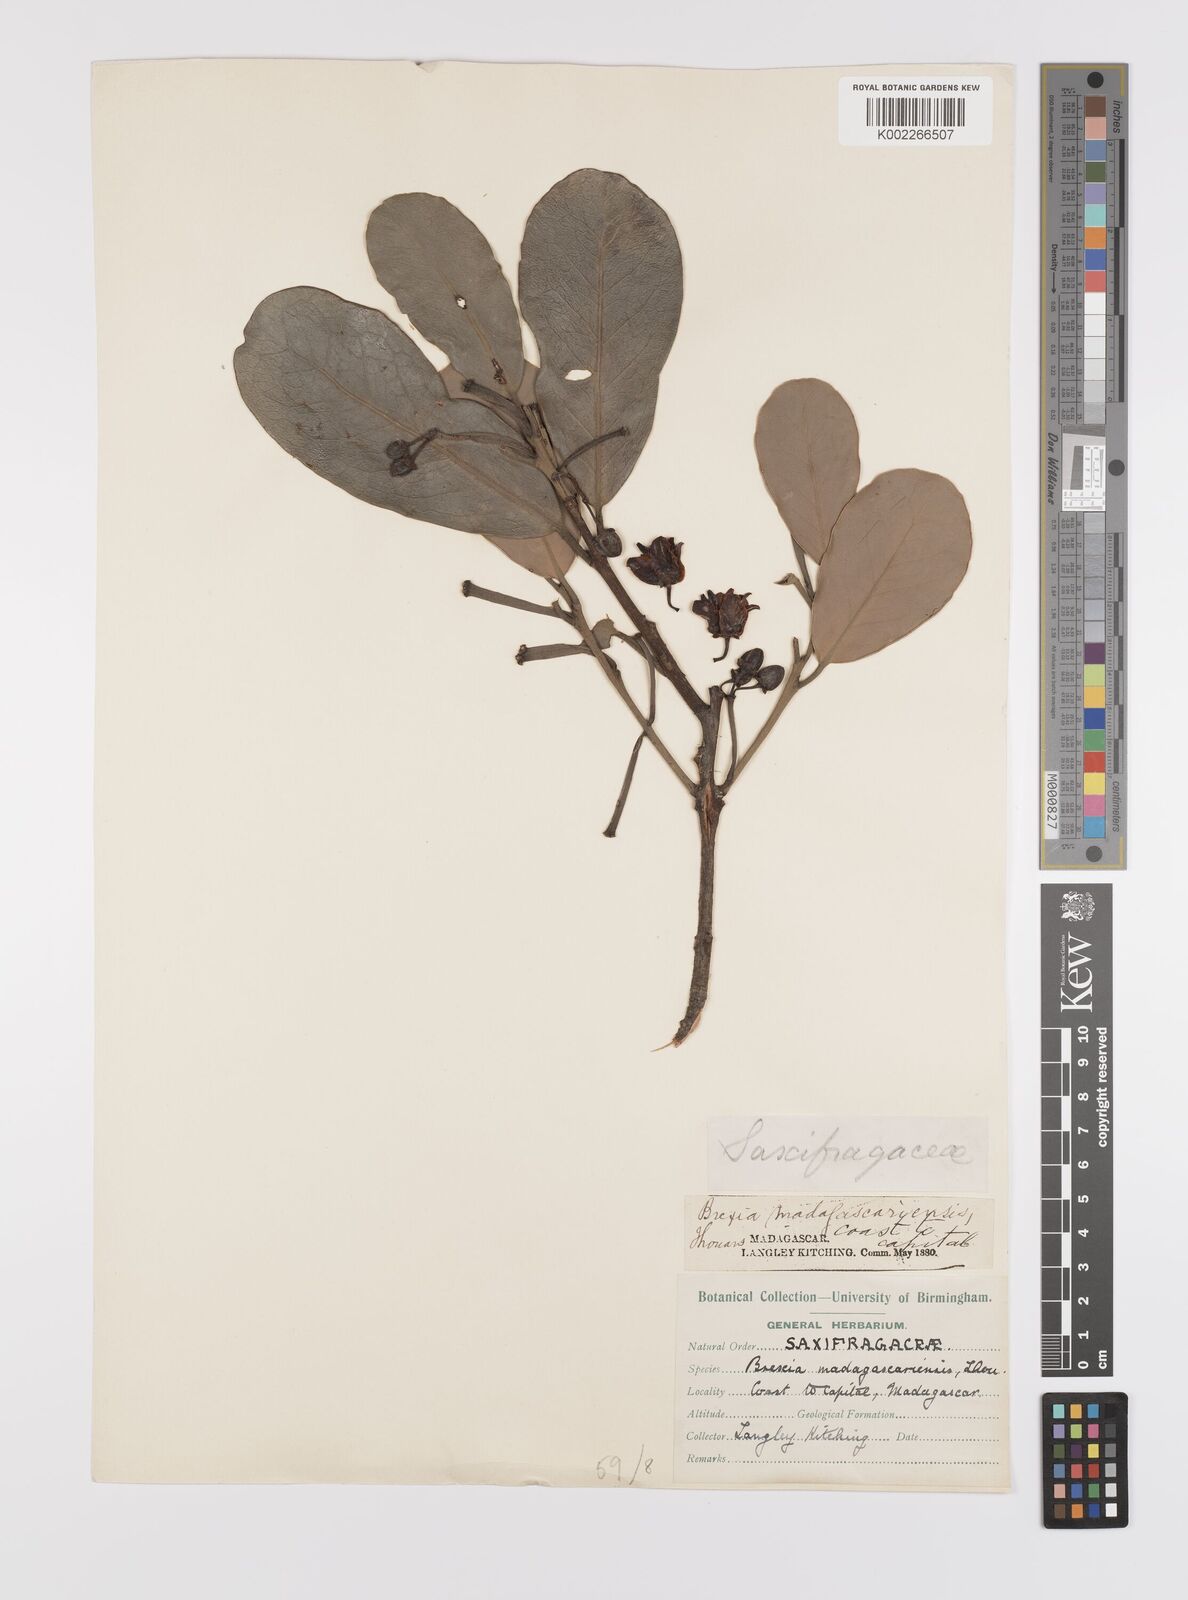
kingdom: Plantae
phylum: Tracheophyta
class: Magnoliopsida
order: Celastrales
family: Celastraceae
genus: Brexia
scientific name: Brexia madagascariensis
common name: Brexia
